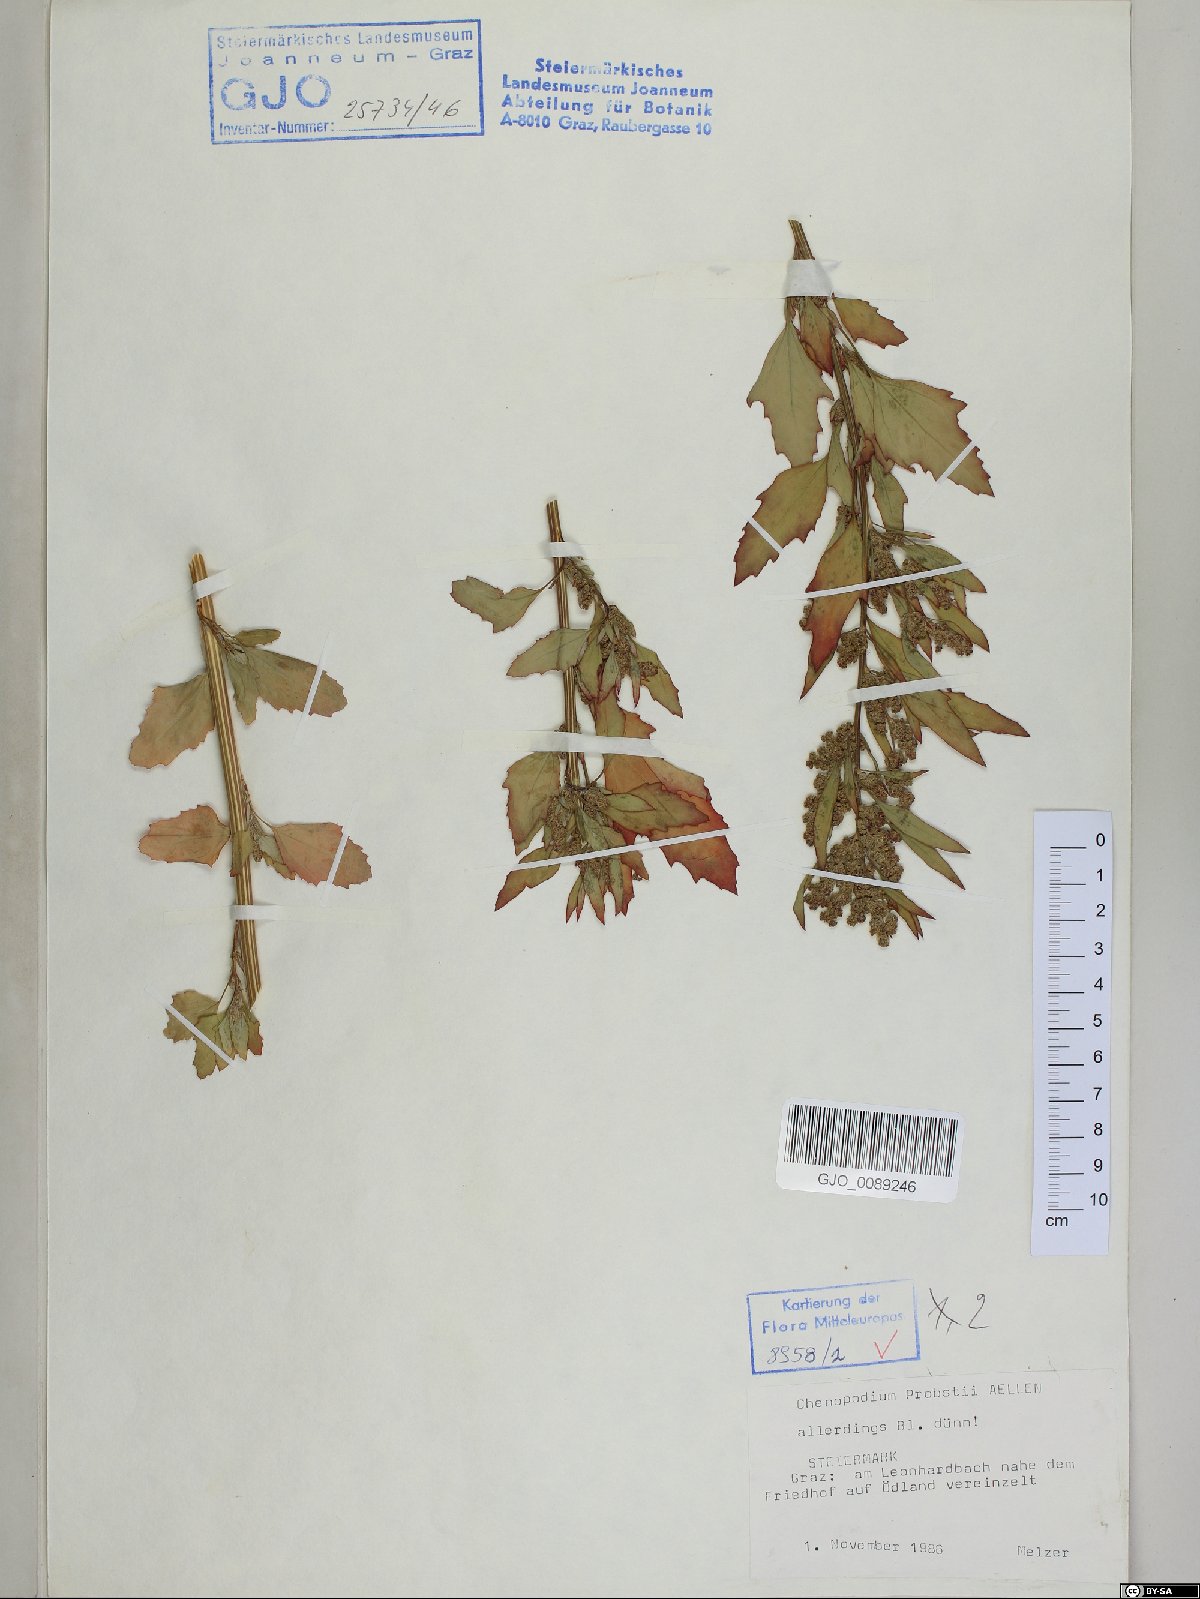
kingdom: Plantae
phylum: Tracheophyta
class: Magnoliopsida
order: Caryophyllales
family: Amaranthaceae
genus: Chenopodium
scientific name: Chenopodium probstii
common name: Probst's goosefoot
